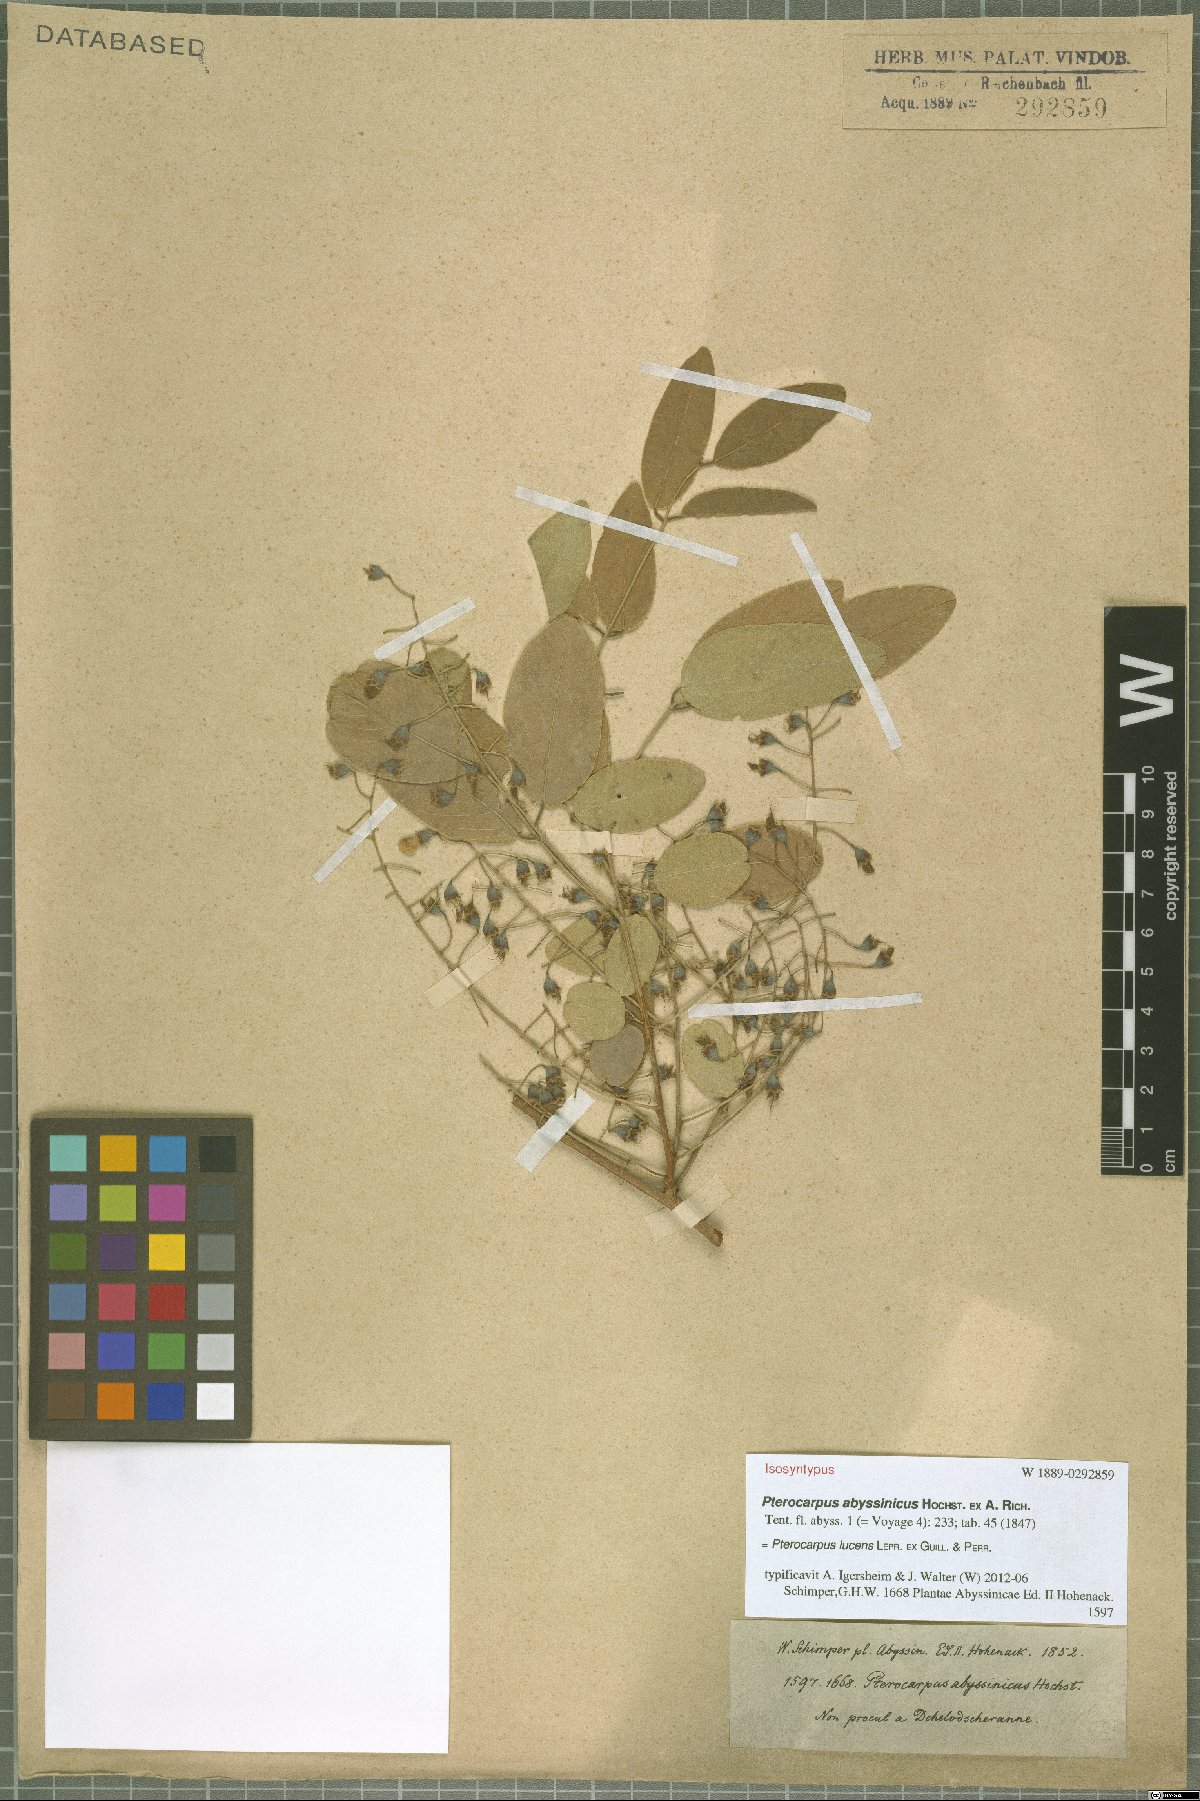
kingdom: Plantae
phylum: Tracheophyta
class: Magnoliopsida
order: Fabales
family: Fabaceae
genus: Pterocarpus
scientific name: Pterocarpus lucens
